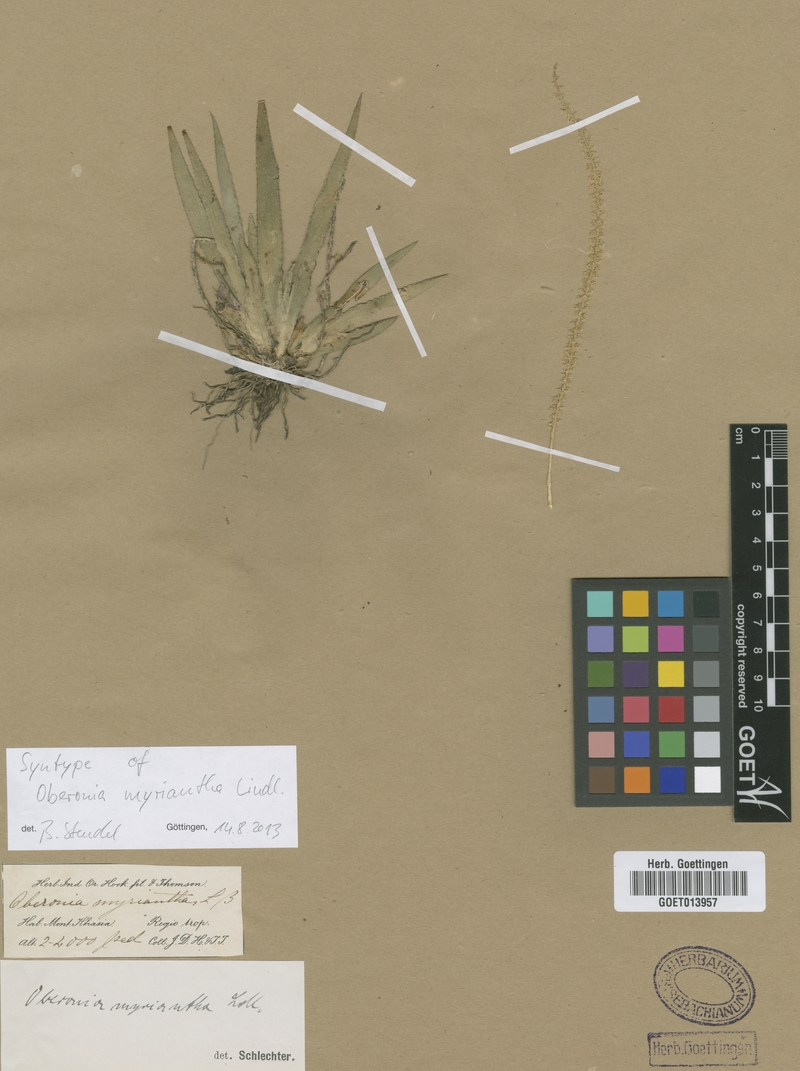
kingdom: Plantae
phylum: Tracheophyta
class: Liliopsida
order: Asparagales
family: Orchidaceae
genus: Oberonia
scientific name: Oberonia acaulis
